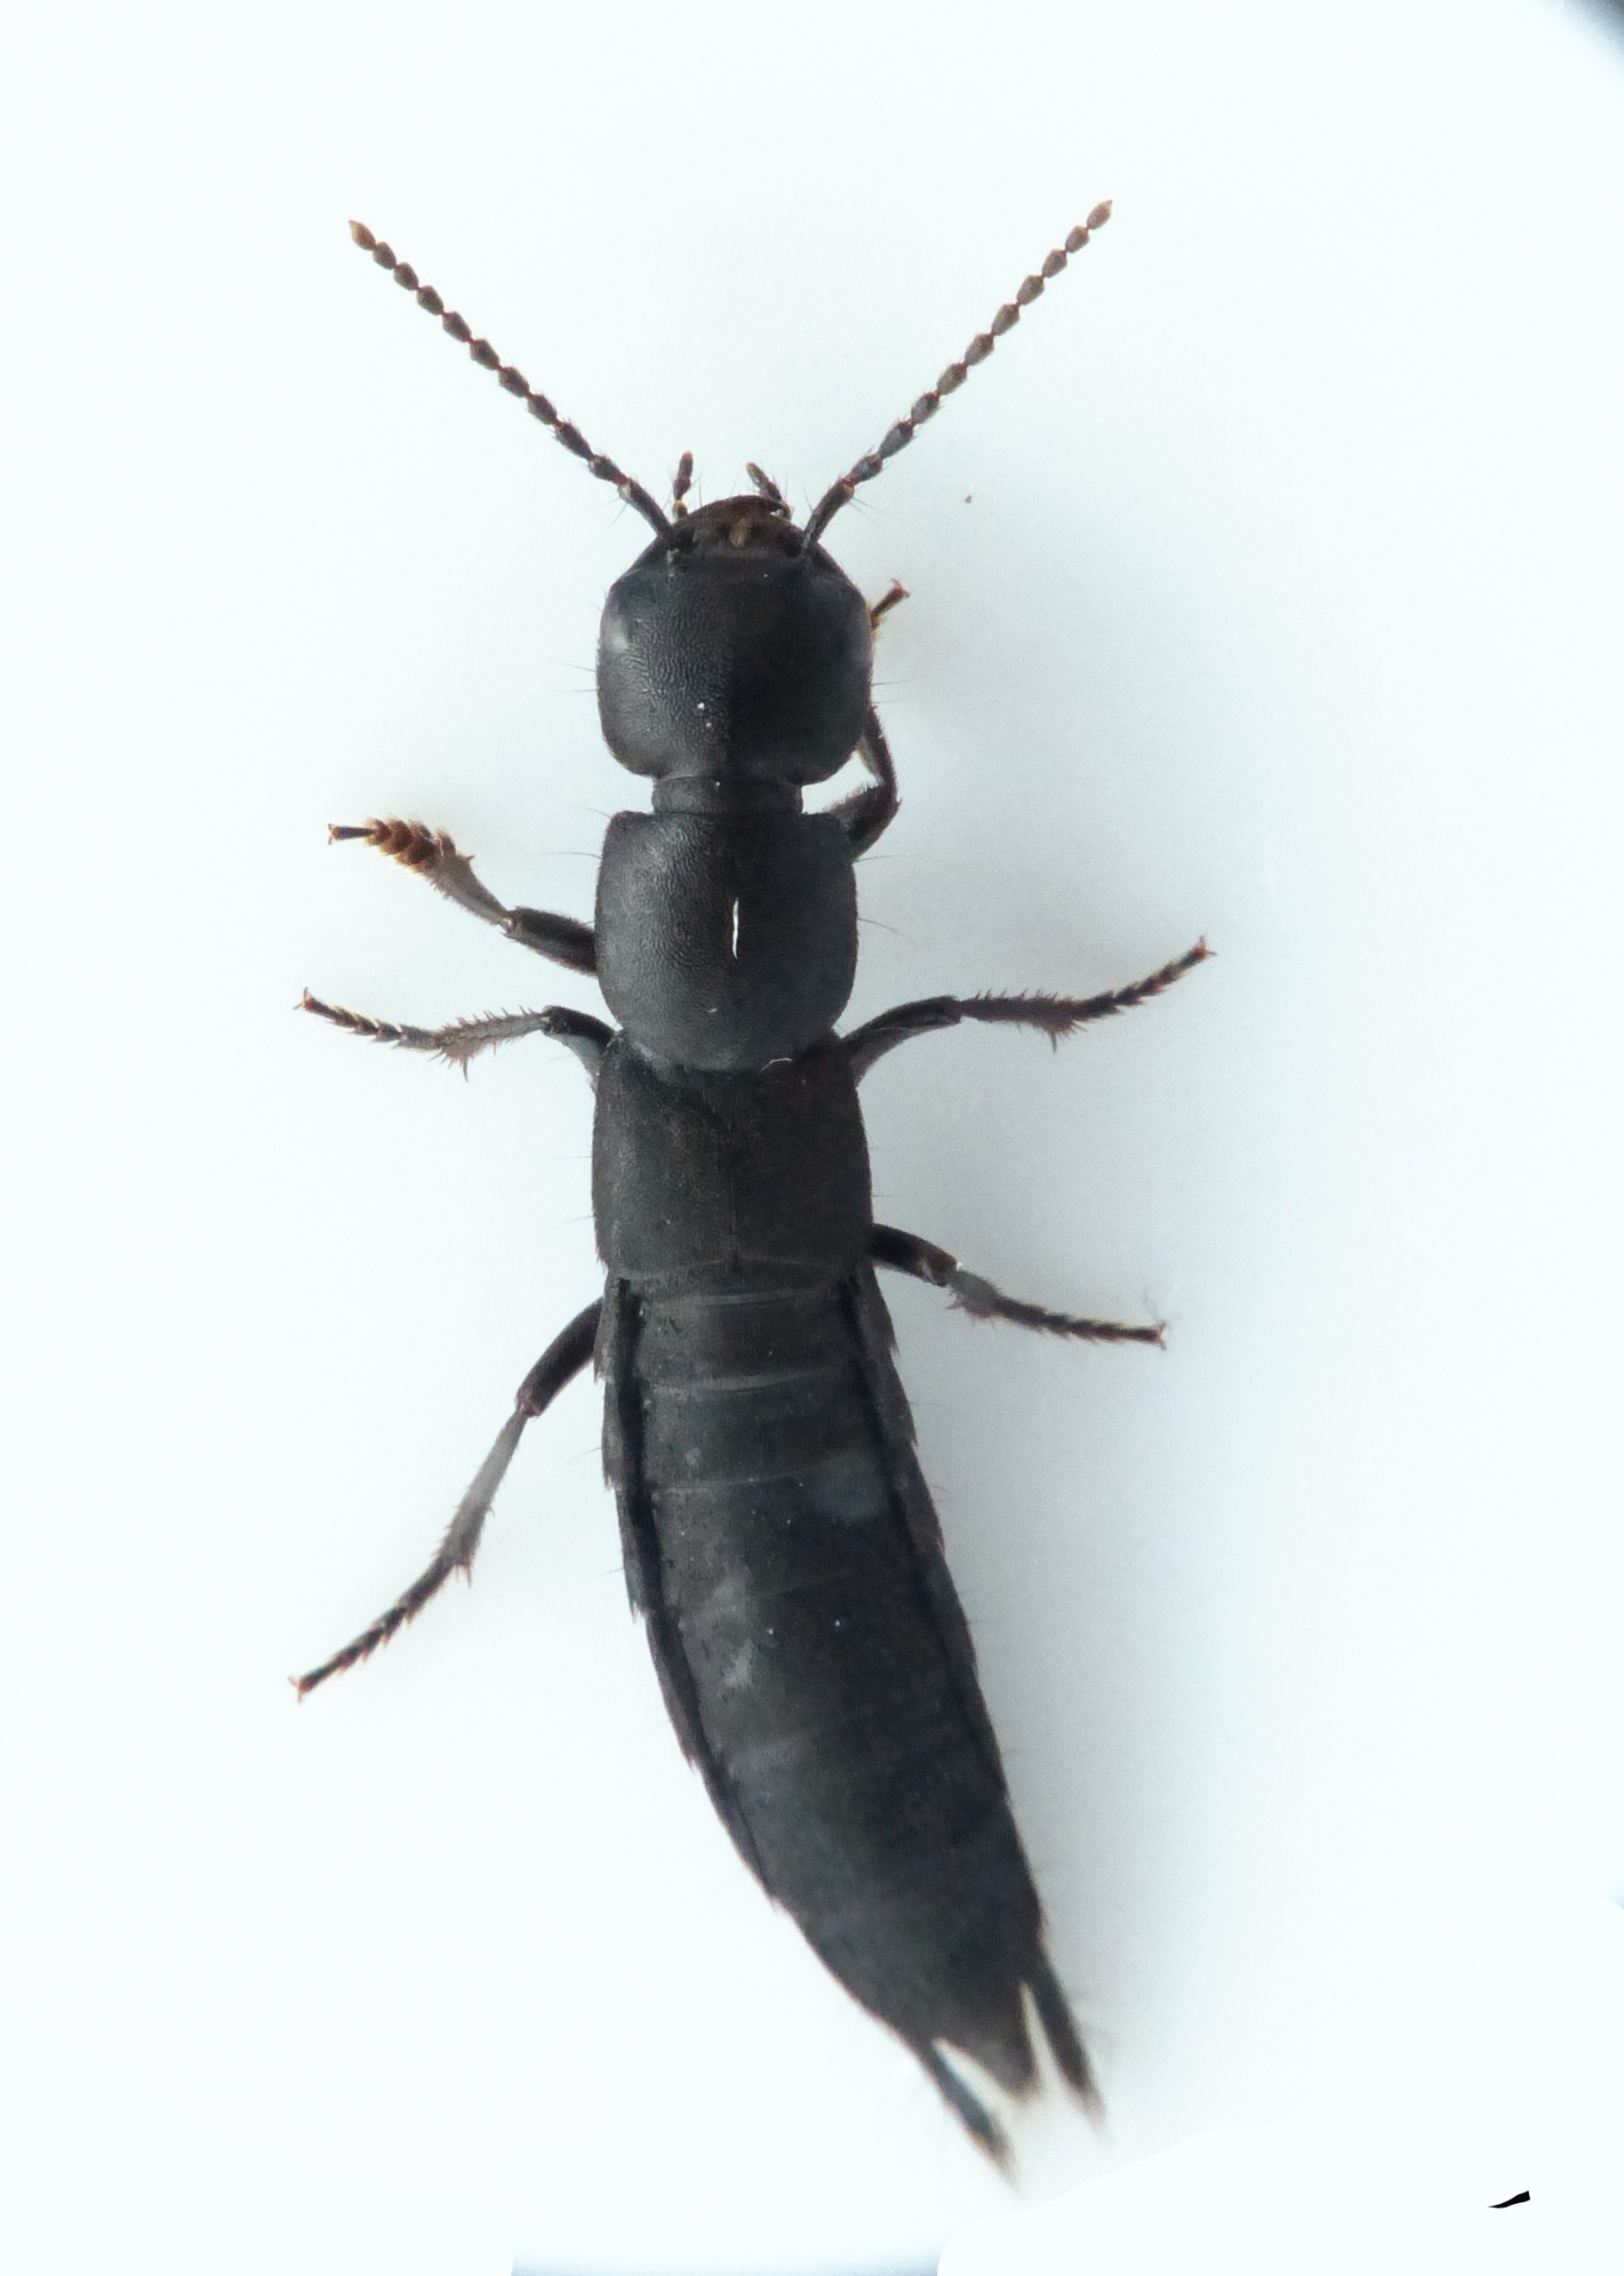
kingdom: Animalia
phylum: Arthropoda
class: Insecta
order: Coleoptera
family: Staphylinidae
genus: Ocypus
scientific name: Ocypus nitens
